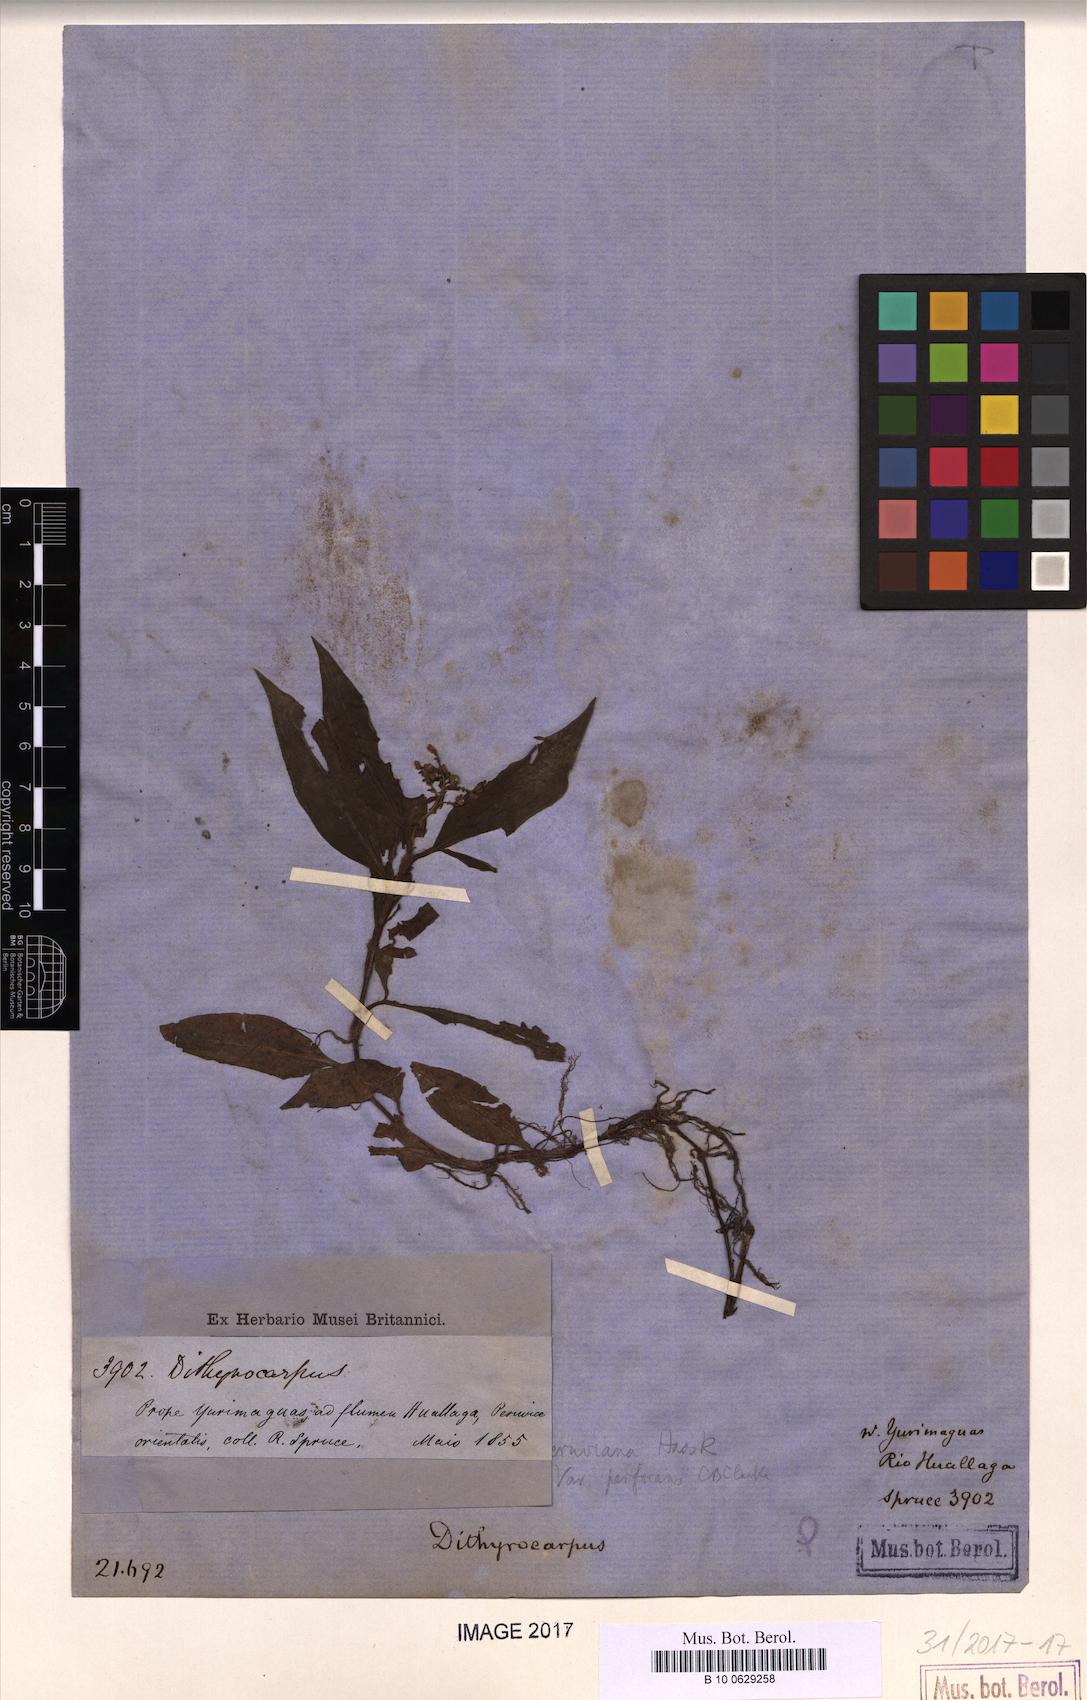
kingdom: Plantae
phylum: Tracheophyta
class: Liliopsida
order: Commelinales
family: Commelinaceae
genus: Floscopa
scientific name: Floscopa peruviana
